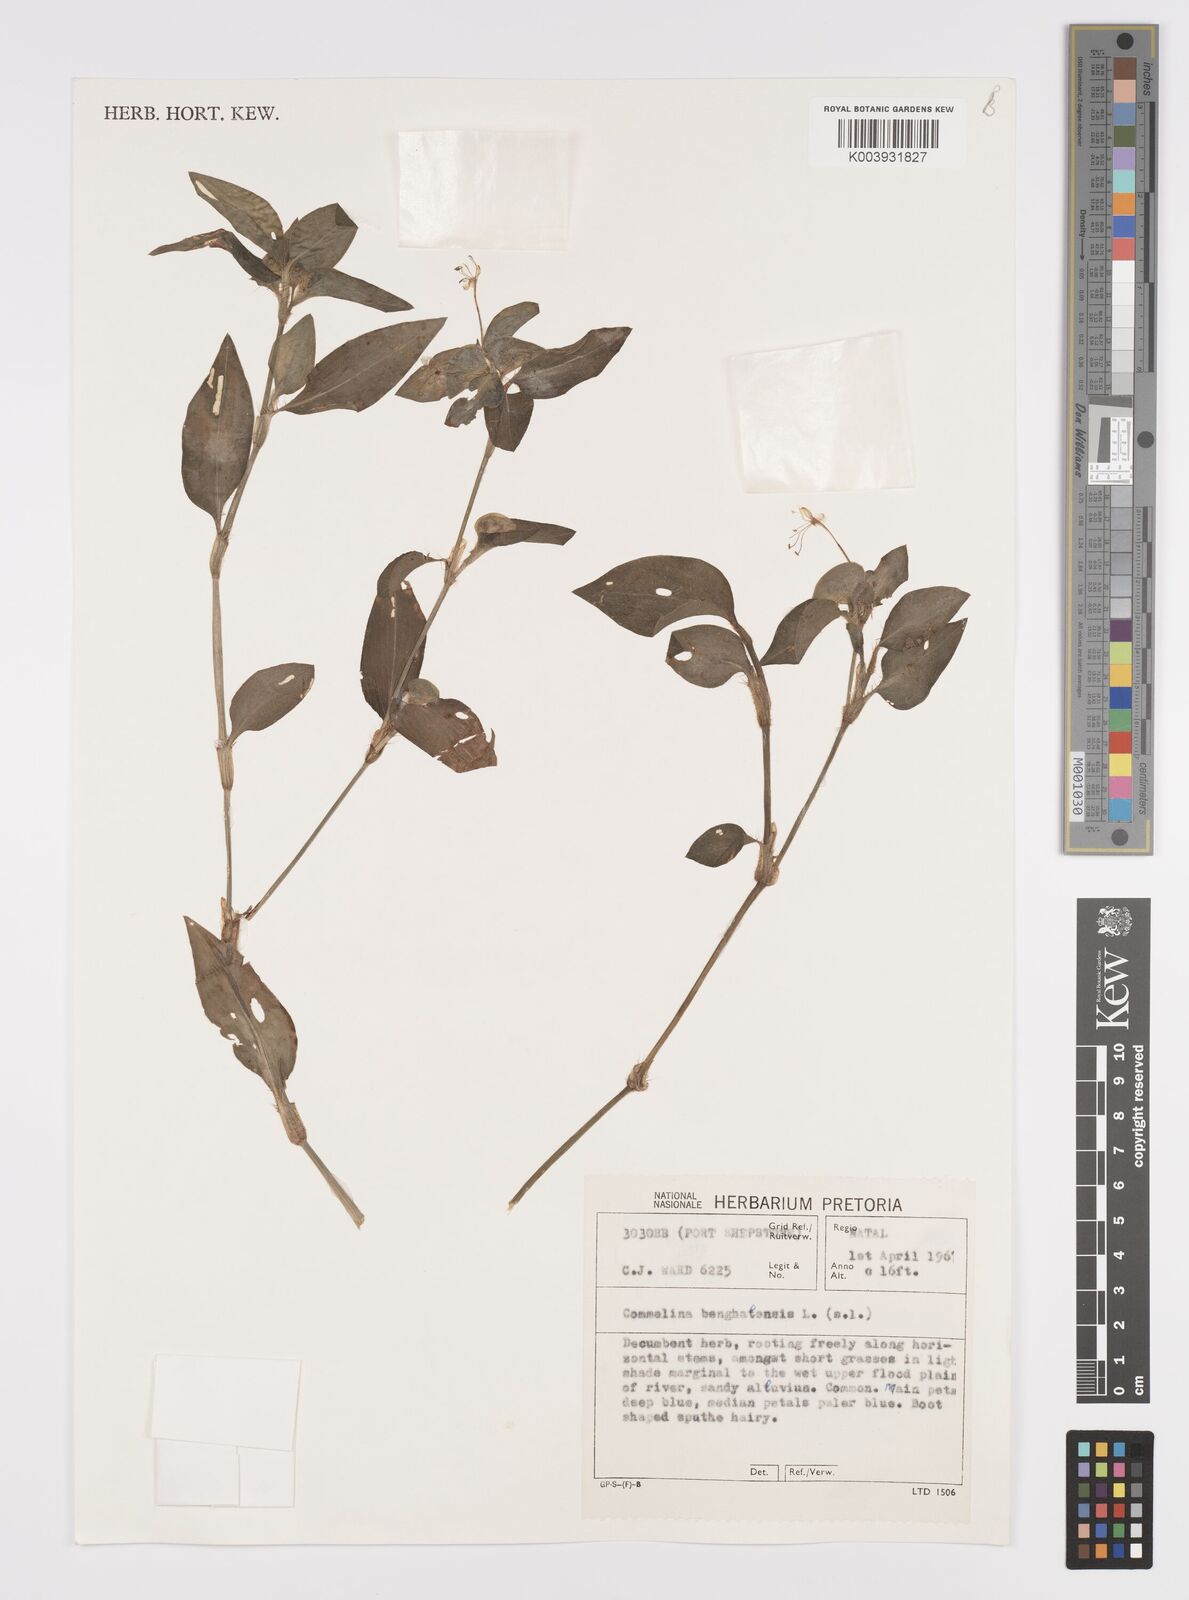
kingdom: Plantae
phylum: Tracheophyta
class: Liliopsida
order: Commelinales
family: Commelinaceae
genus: Commelina
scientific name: Commelina benghalensis
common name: Jio
